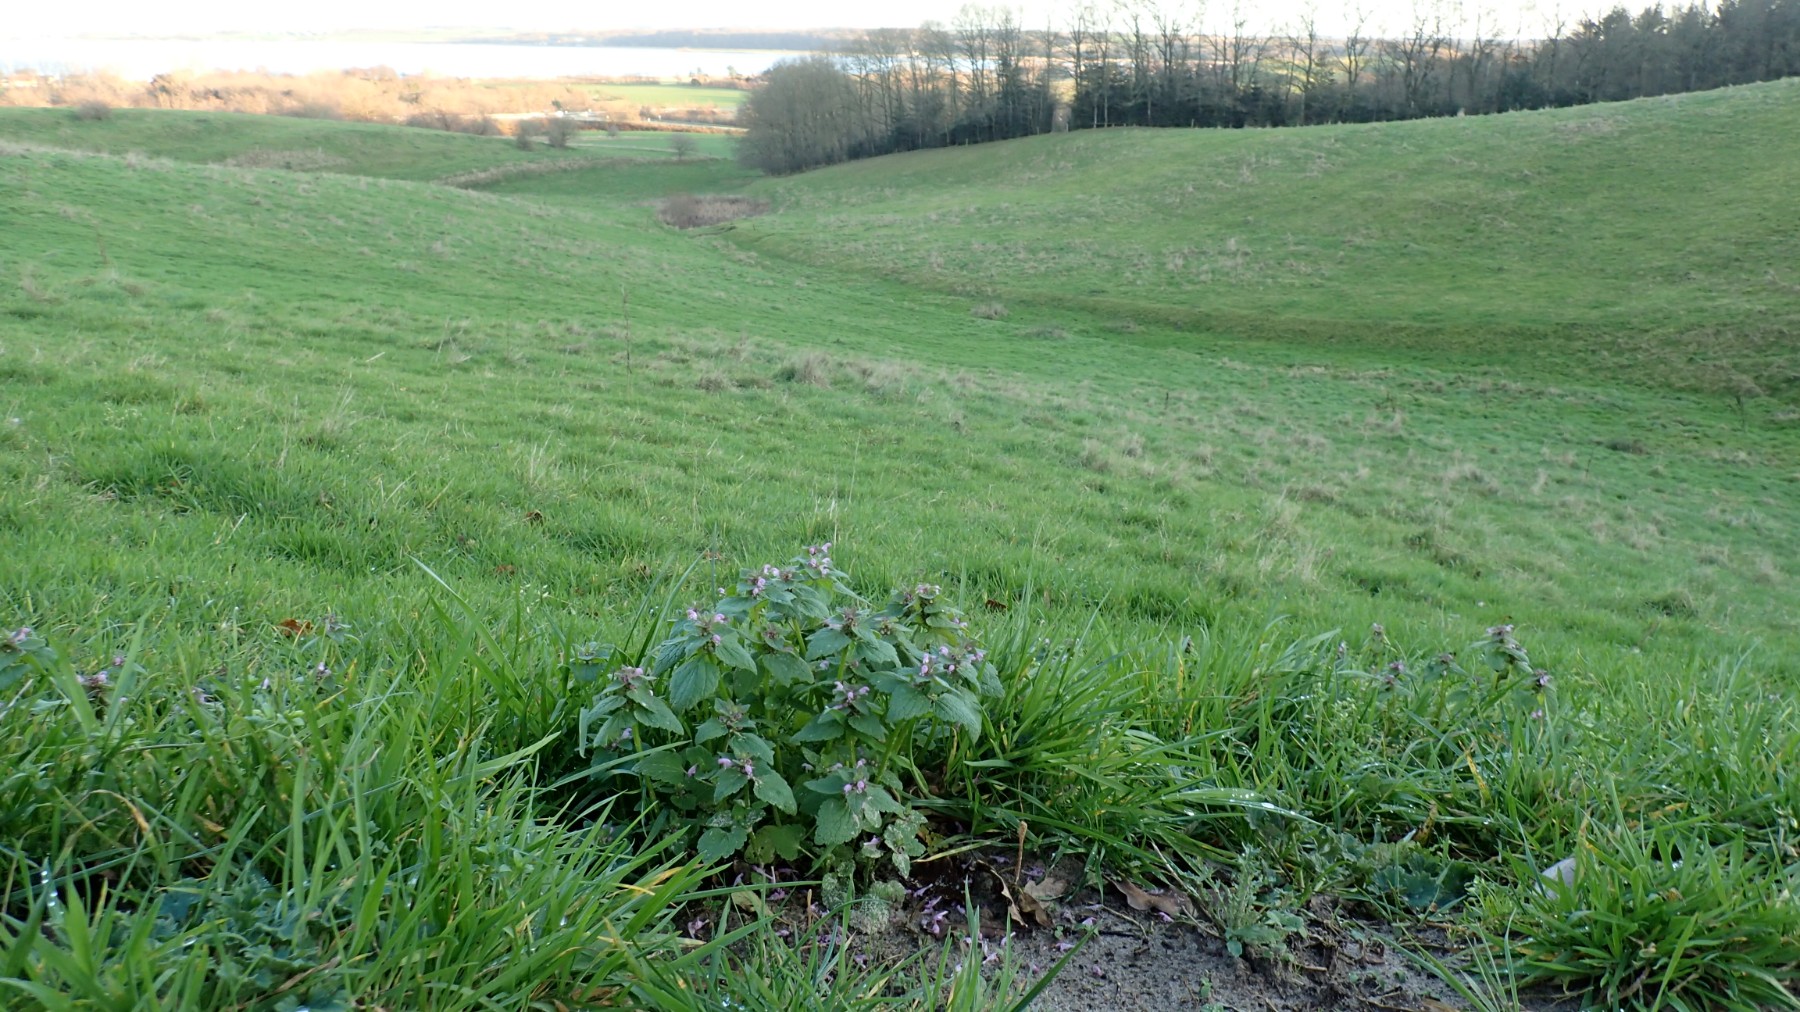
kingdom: Fungi
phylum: Basidiomycota
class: Agaricomycetes
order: Agaricales
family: Hymenogastraceae
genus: Galerina
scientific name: Galerina vittiformis
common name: Hairy leg bell
